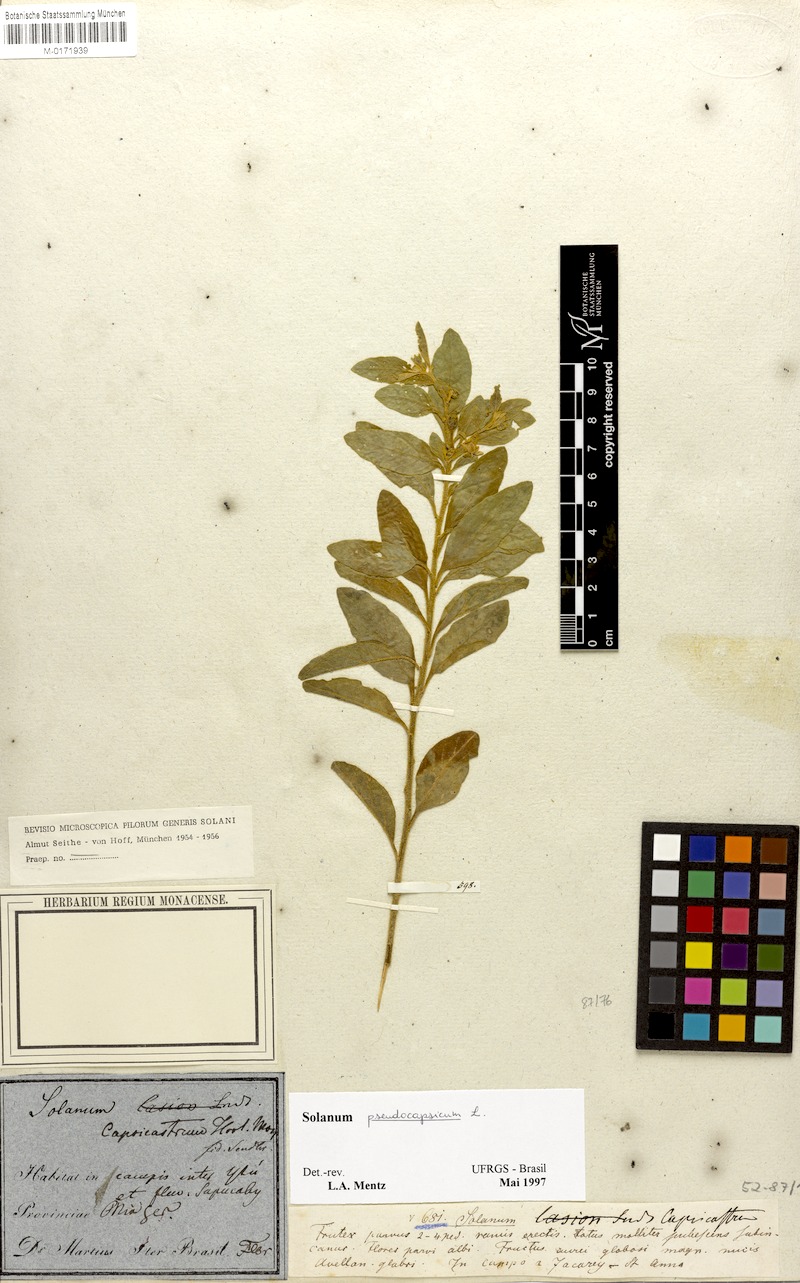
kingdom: Plantae
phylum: Tracheophyta
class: Magnoliopsida
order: Solanales
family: Solanaceae
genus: Solanum
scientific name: Solanum pseudocapsicum
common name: Jerusalem cherry
